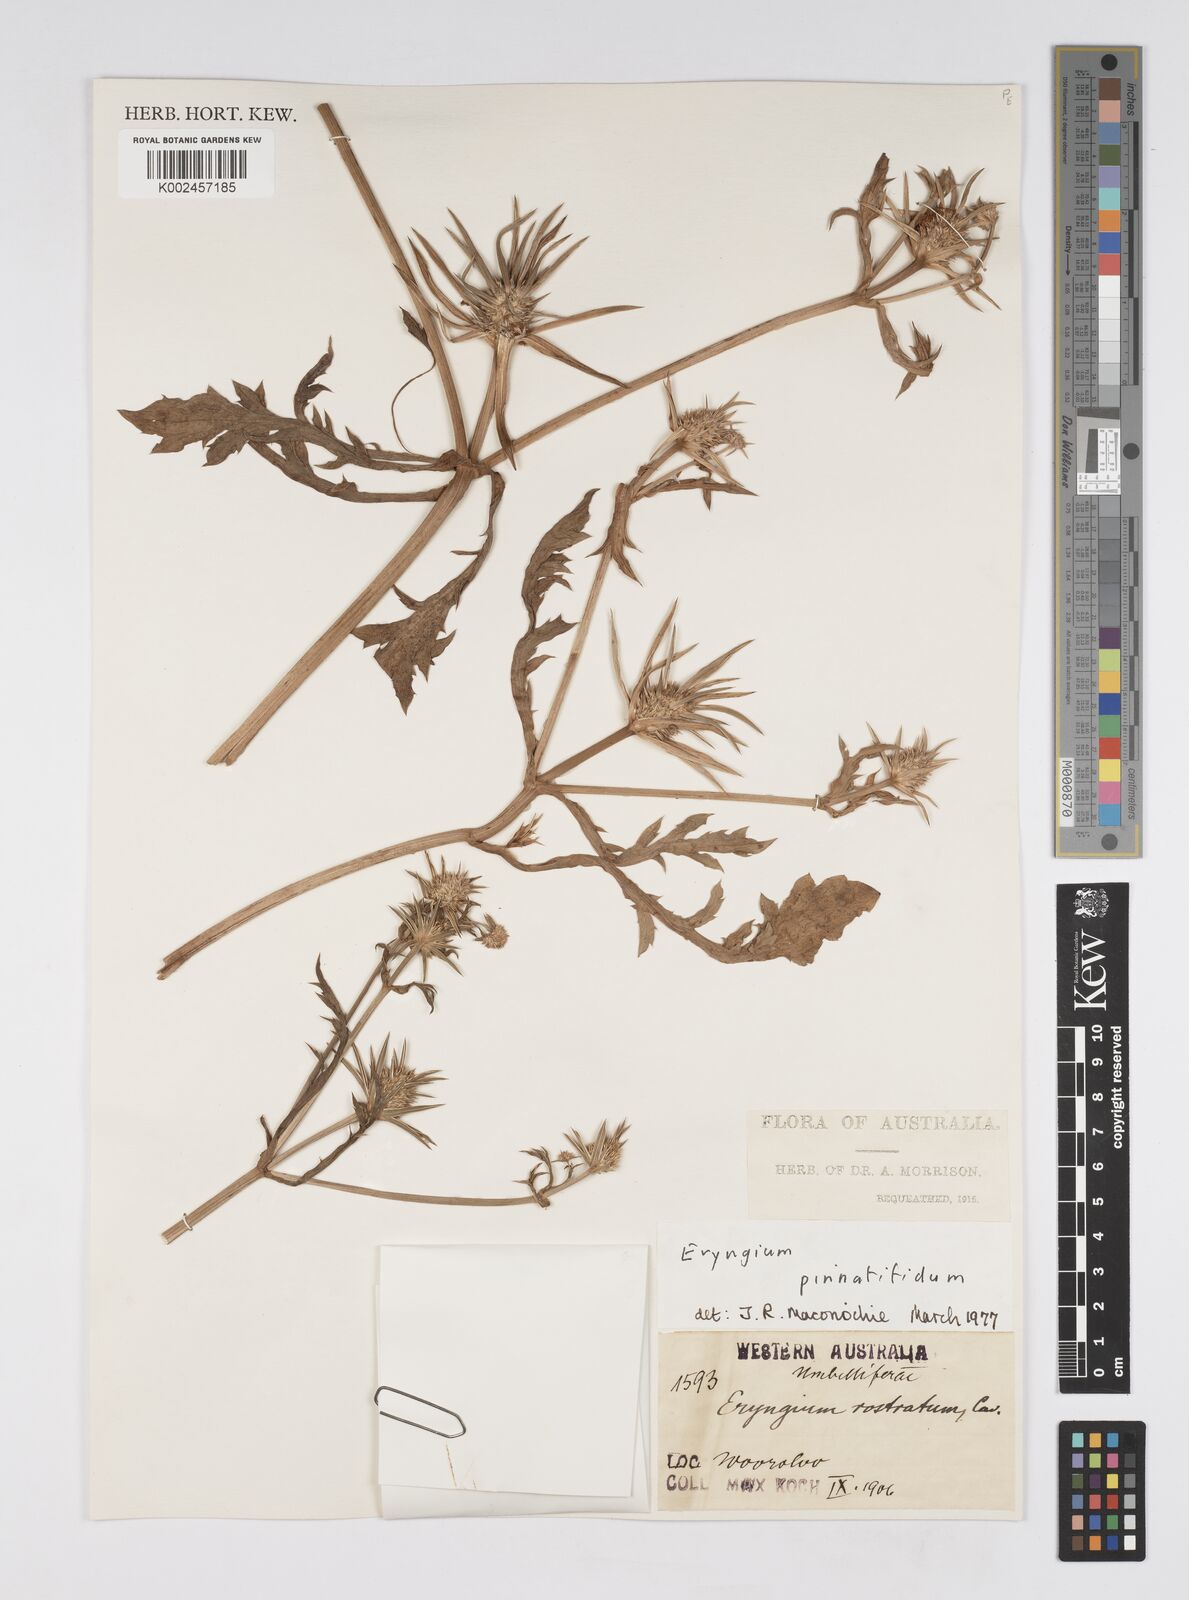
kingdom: Plantae
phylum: Tracheophyta
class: Magnoliopsida
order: Apiales
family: Apiaceae
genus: Eryngium
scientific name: Eryngium pinnatifidum
